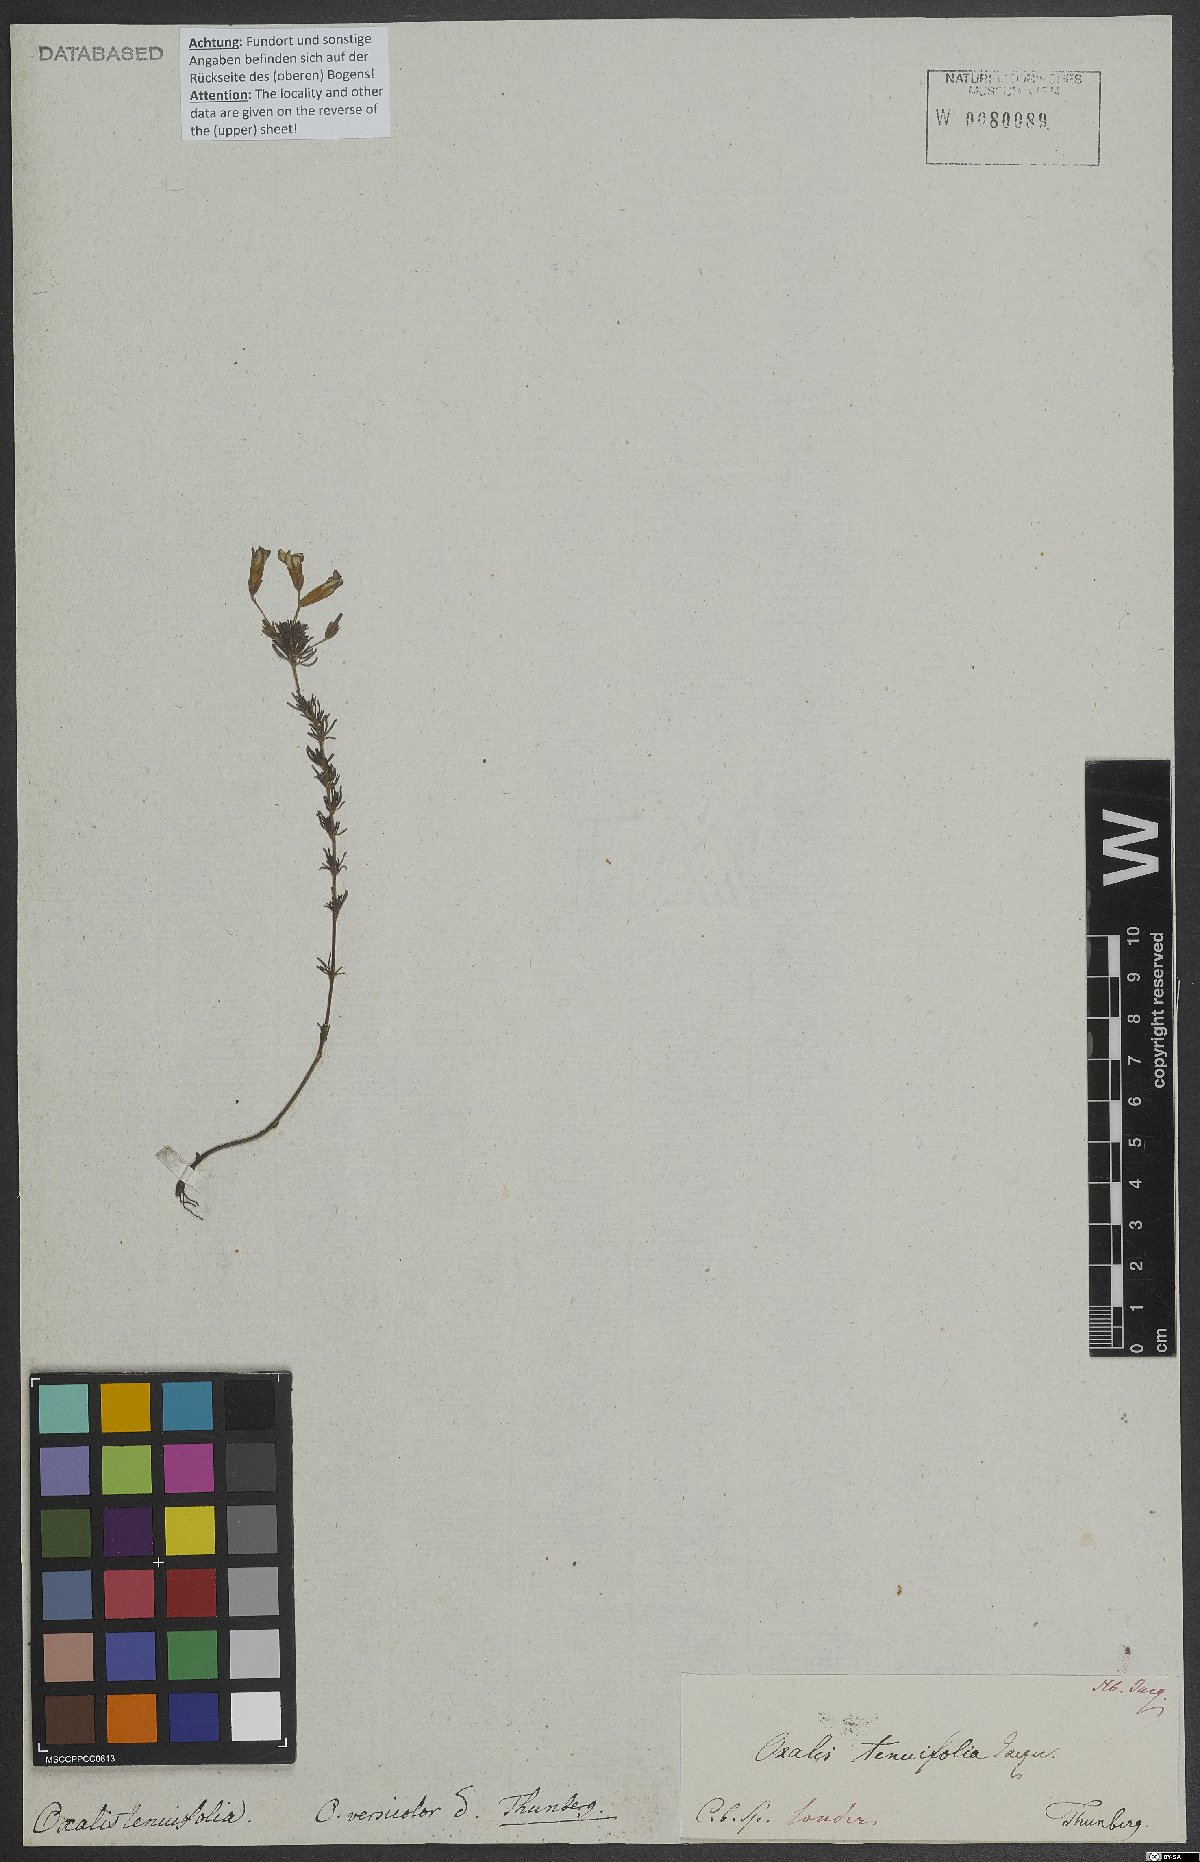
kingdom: Plantae
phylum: Tracheophyta
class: Magnoliopsida
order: Oxalidales
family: Oxalidaceae
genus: Oxalis
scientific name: Oxalis tenuifolia
